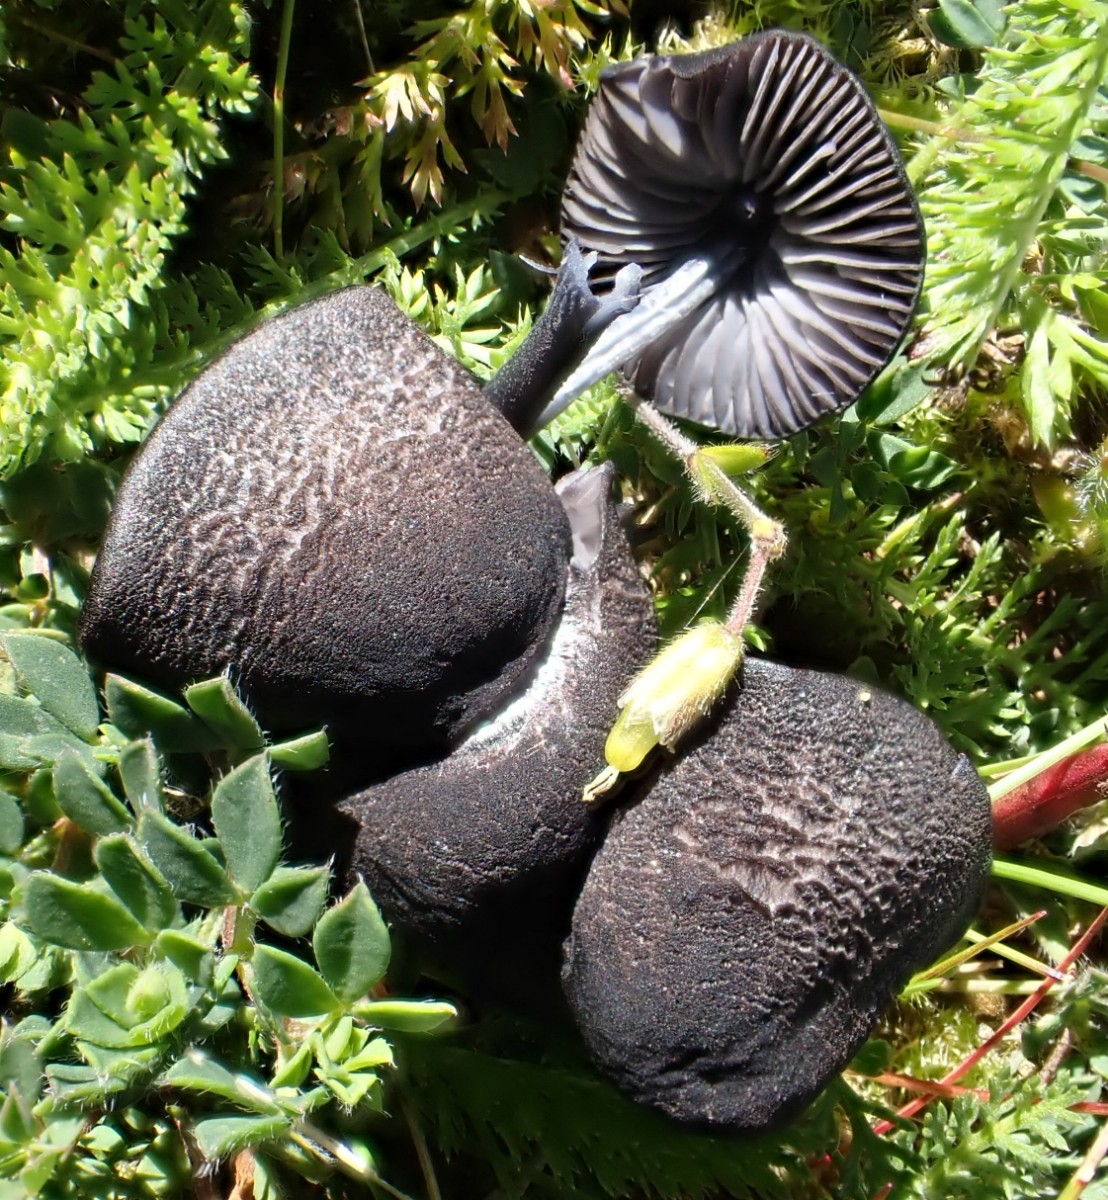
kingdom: Fungi
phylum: Basidiomycota
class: Agaricomycetes
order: Agaricales
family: Entolomataceae
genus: Entoloma
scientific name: Entoloma
